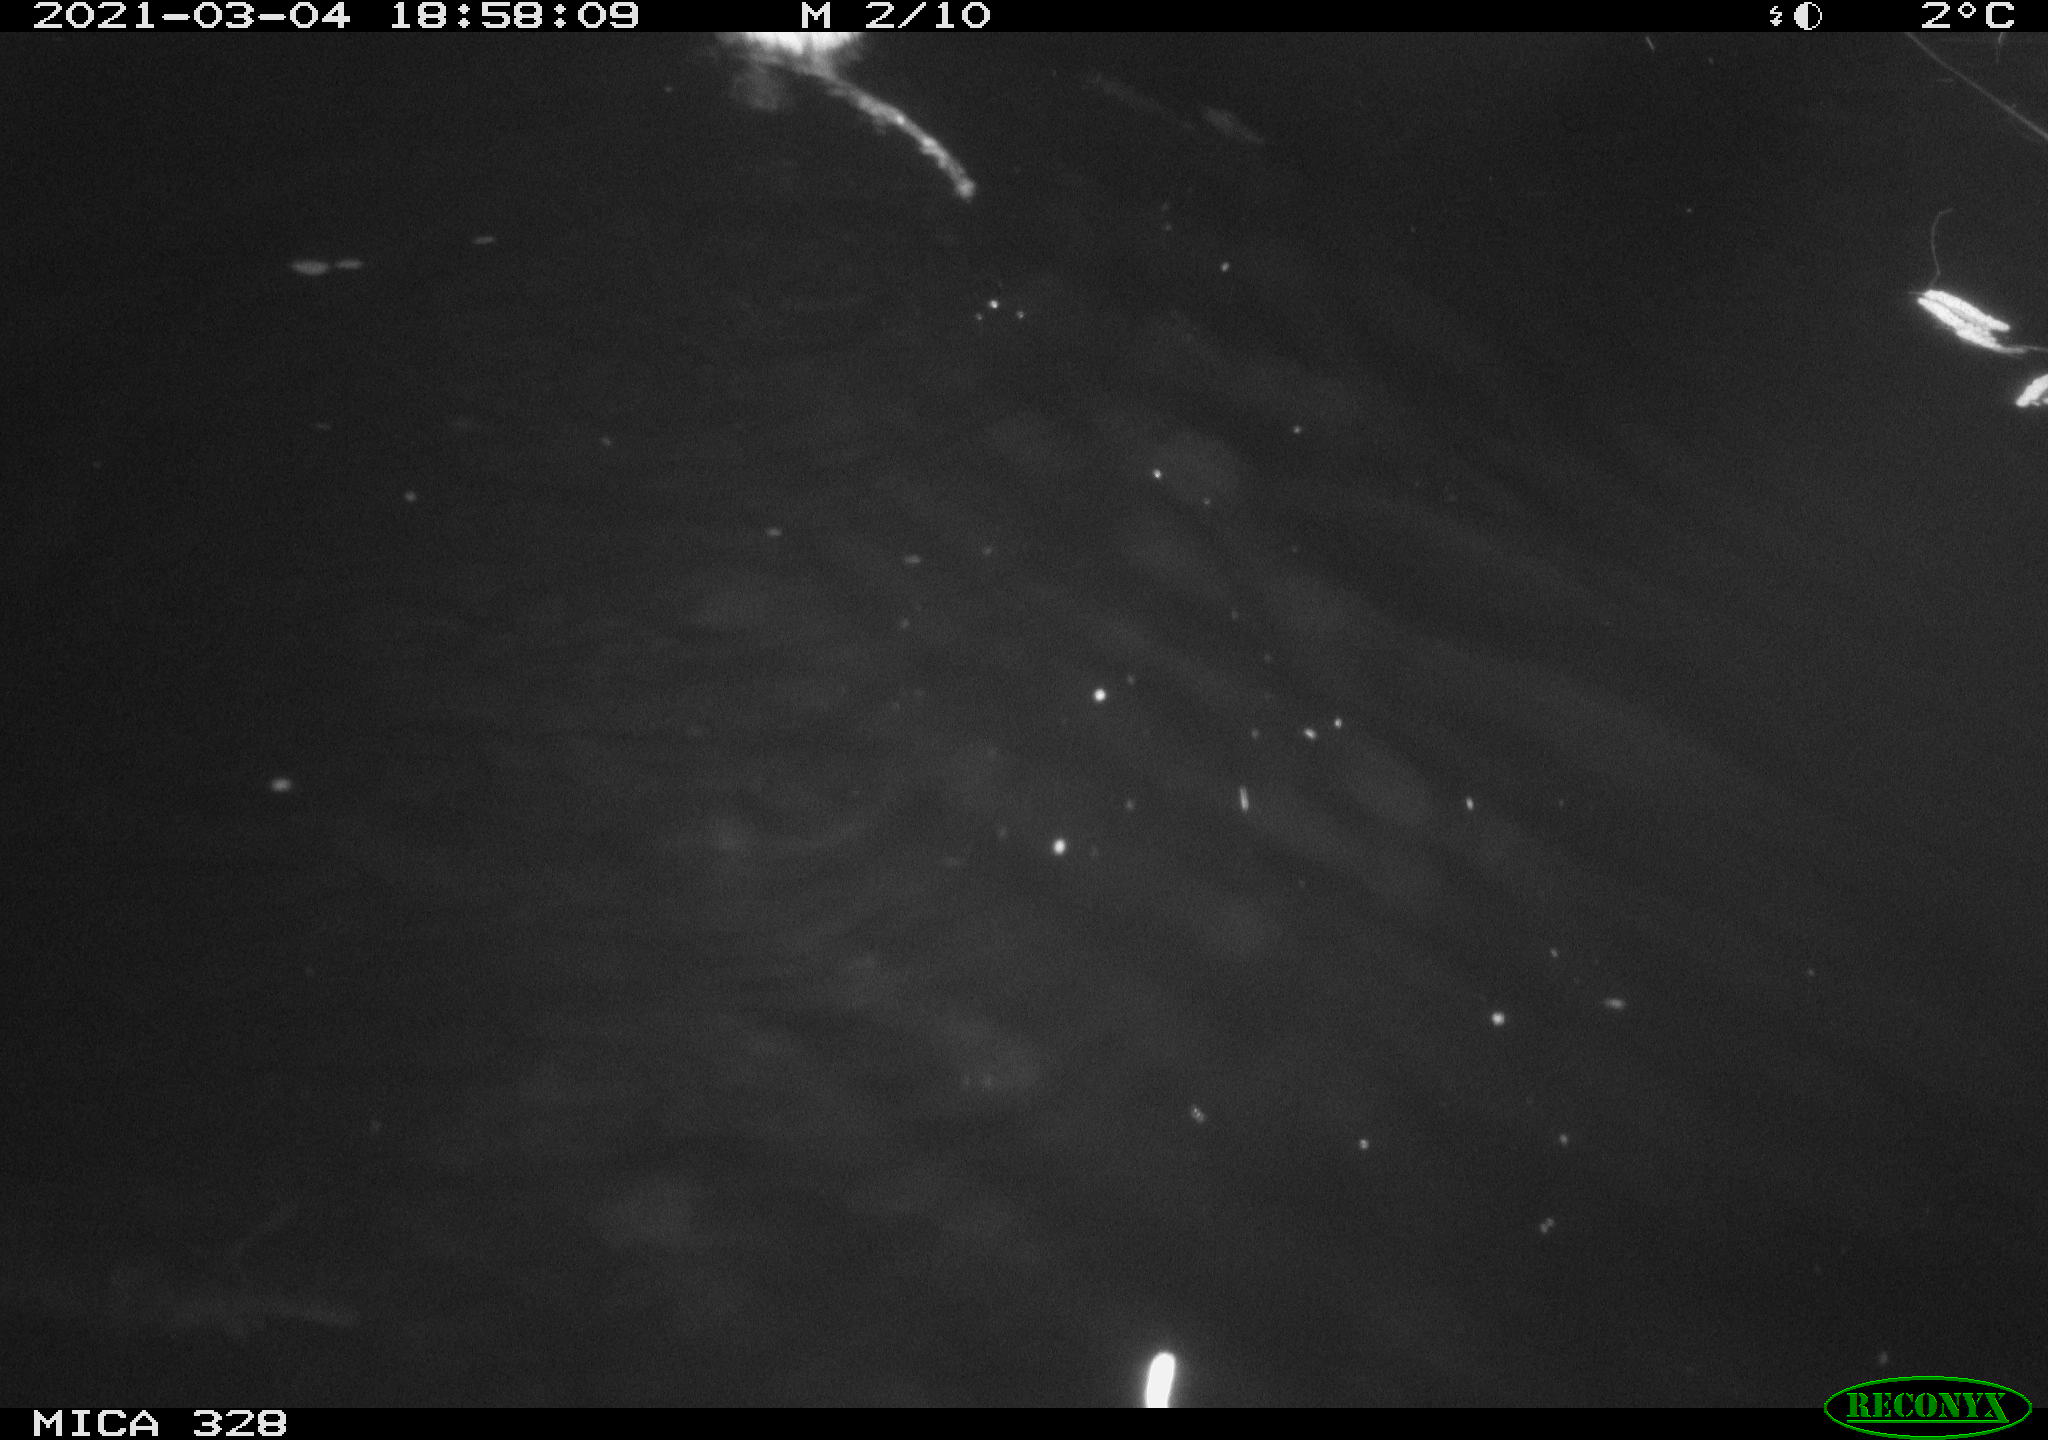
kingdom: Animalia
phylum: Chordata
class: Aves
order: Anseriformes
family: Anatidae
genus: Anas
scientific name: Anas
